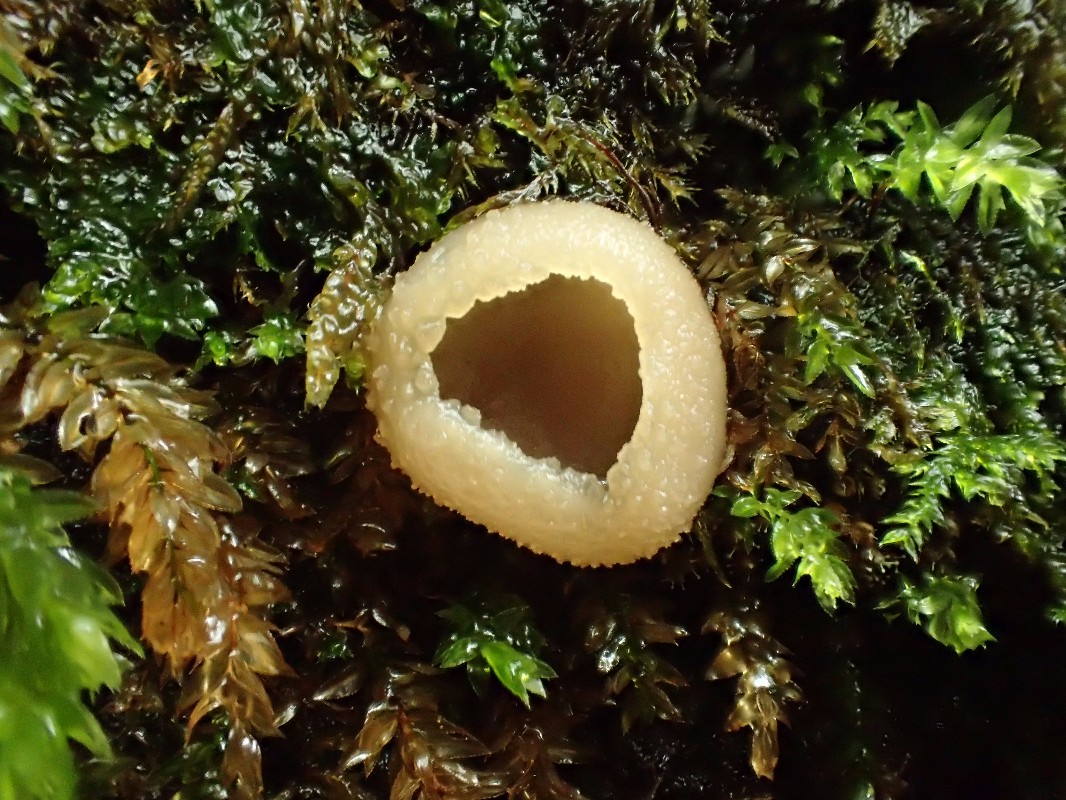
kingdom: Fungi
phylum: Ascomycota
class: Pezizomycetes
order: Pezizales
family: Pezizaceae
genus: Peziza
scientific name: Peziza varia
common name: Ved-bægersvamp
